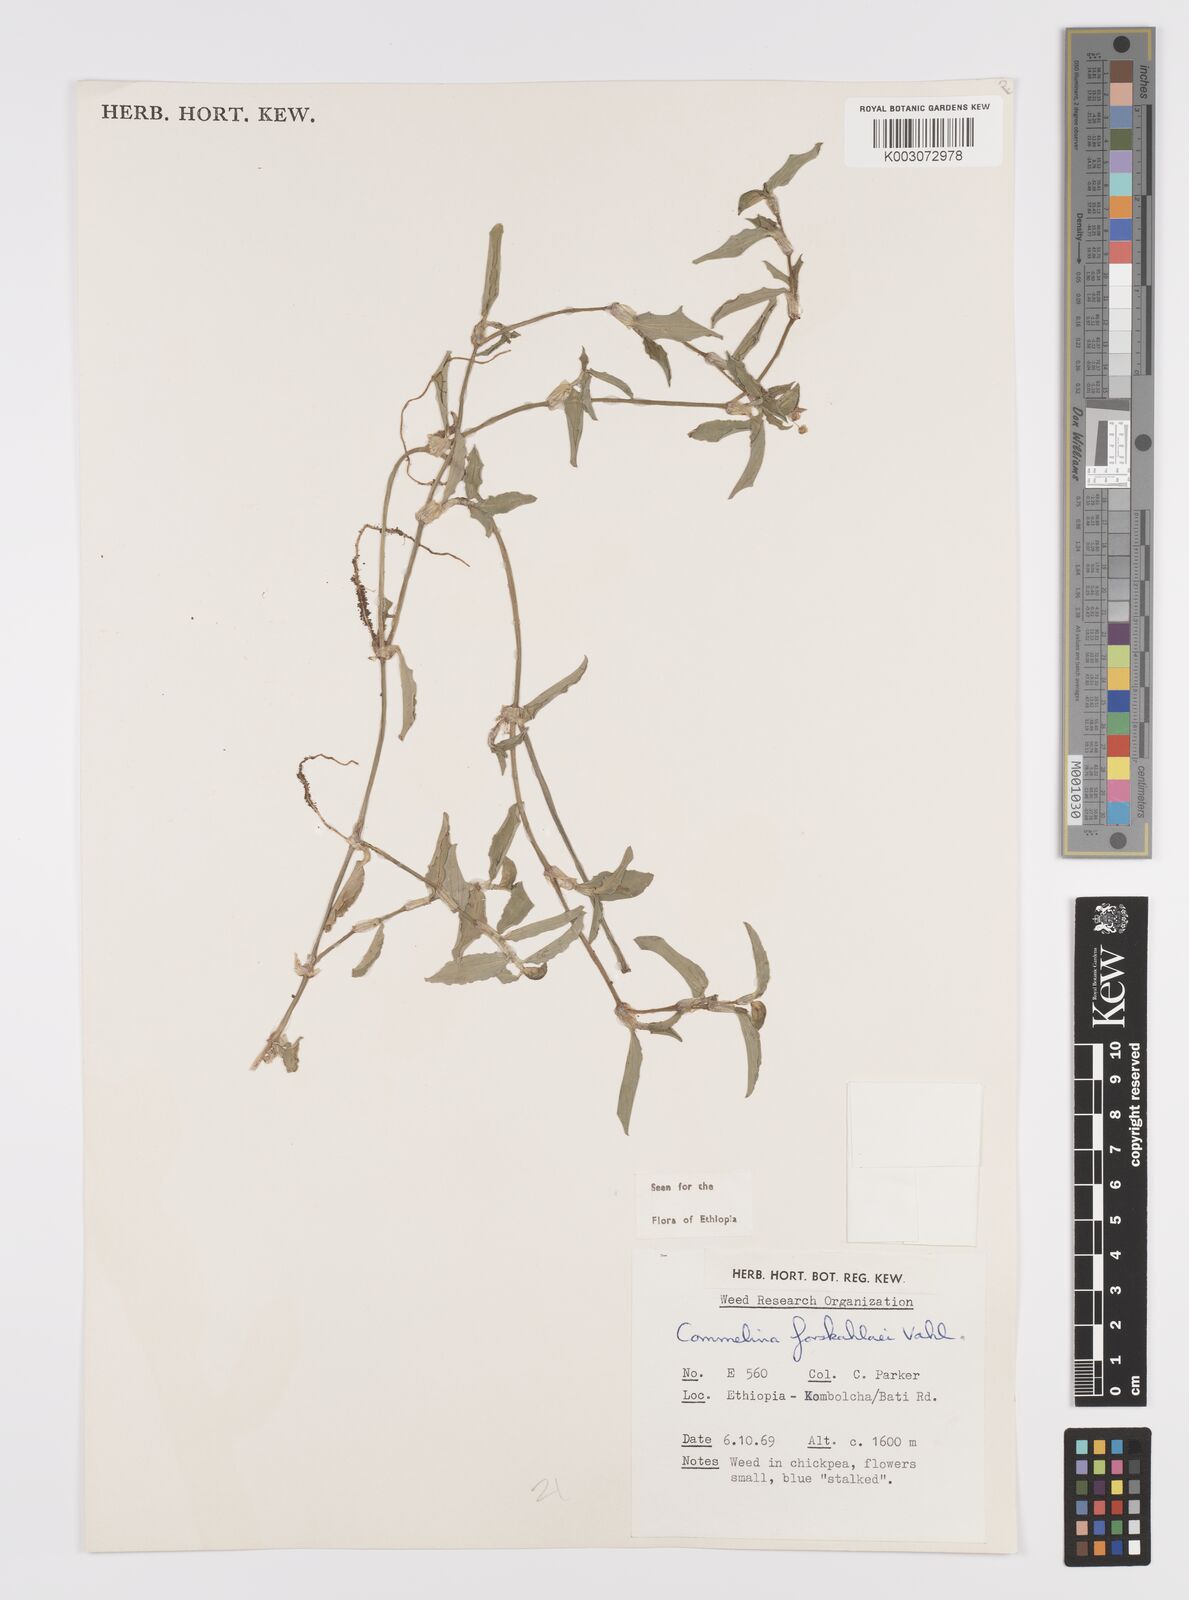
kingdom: Plantae
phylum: Tracheophyta
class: Liliopsida
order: Commelinales
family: Commelinaceae
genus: Commelina
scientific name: Commelina forskaolii
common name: Rat's ear
